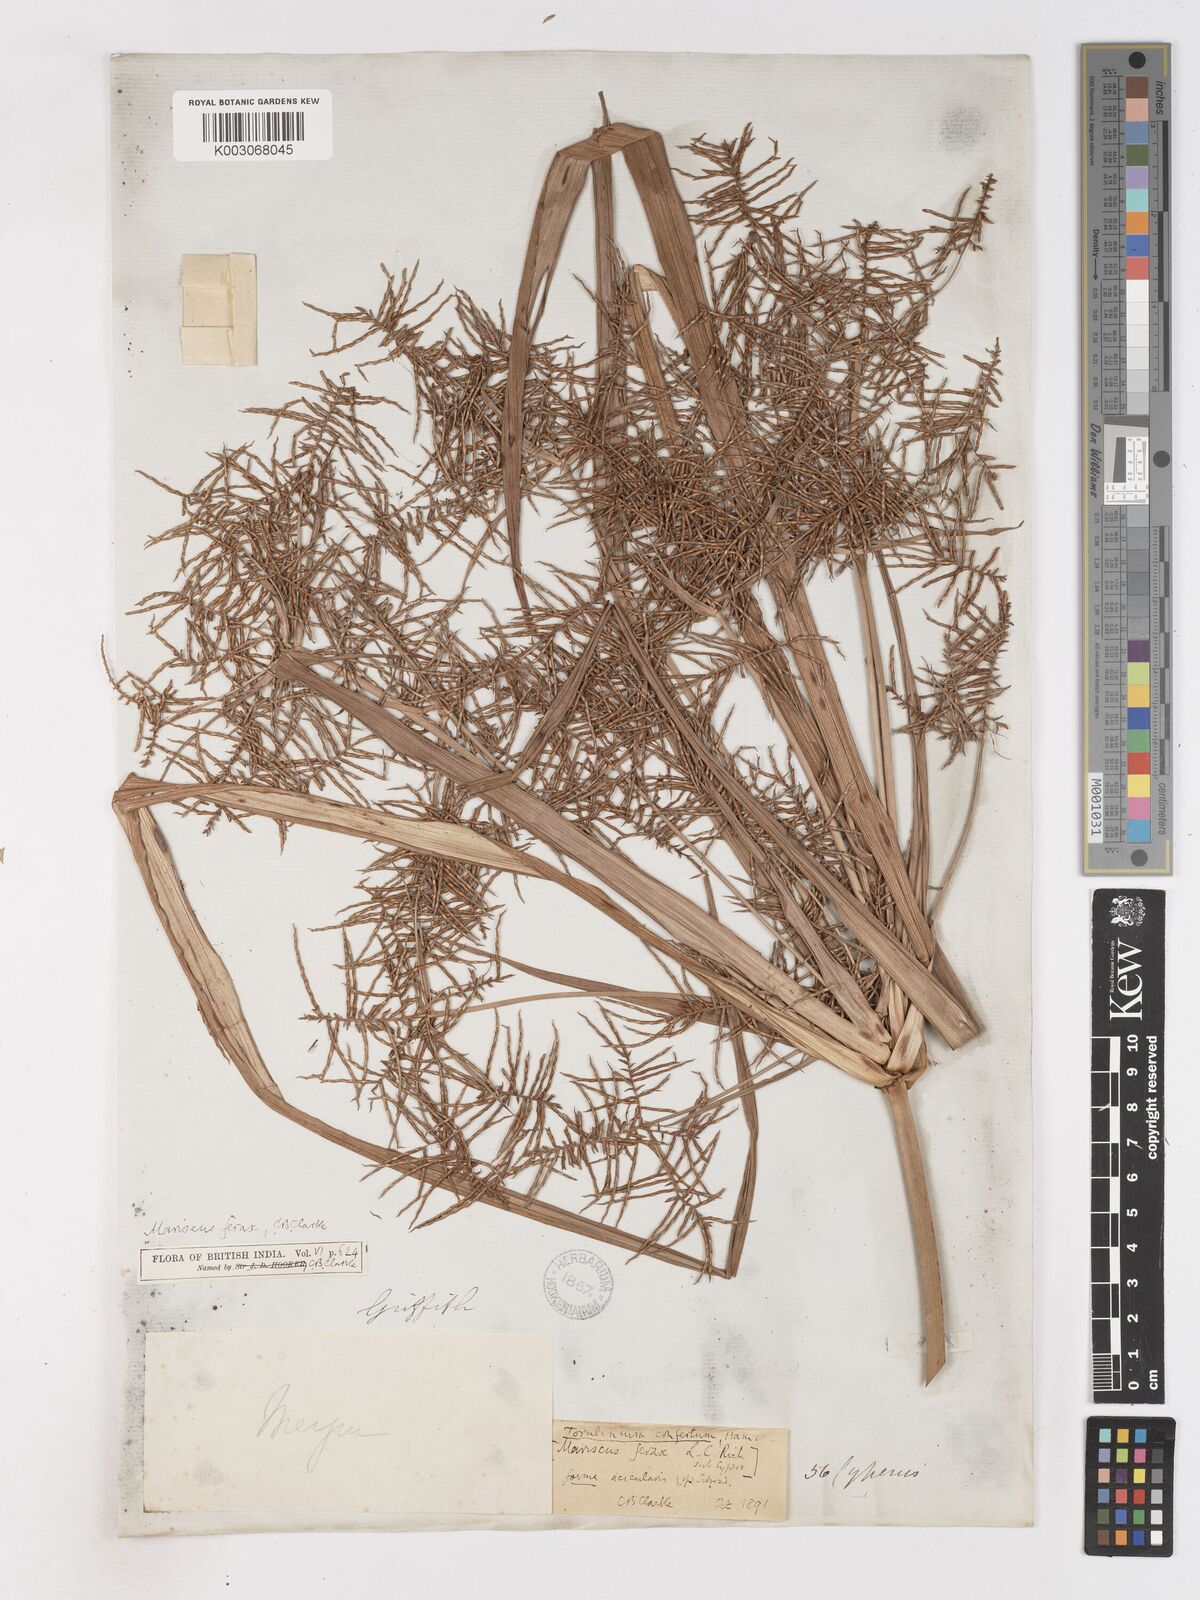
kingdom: Plantae
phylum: Tracheophyta
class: Liliopsida
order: Poales
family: Cyperaceae
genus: Cyperus
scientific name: Cyperus strongii
